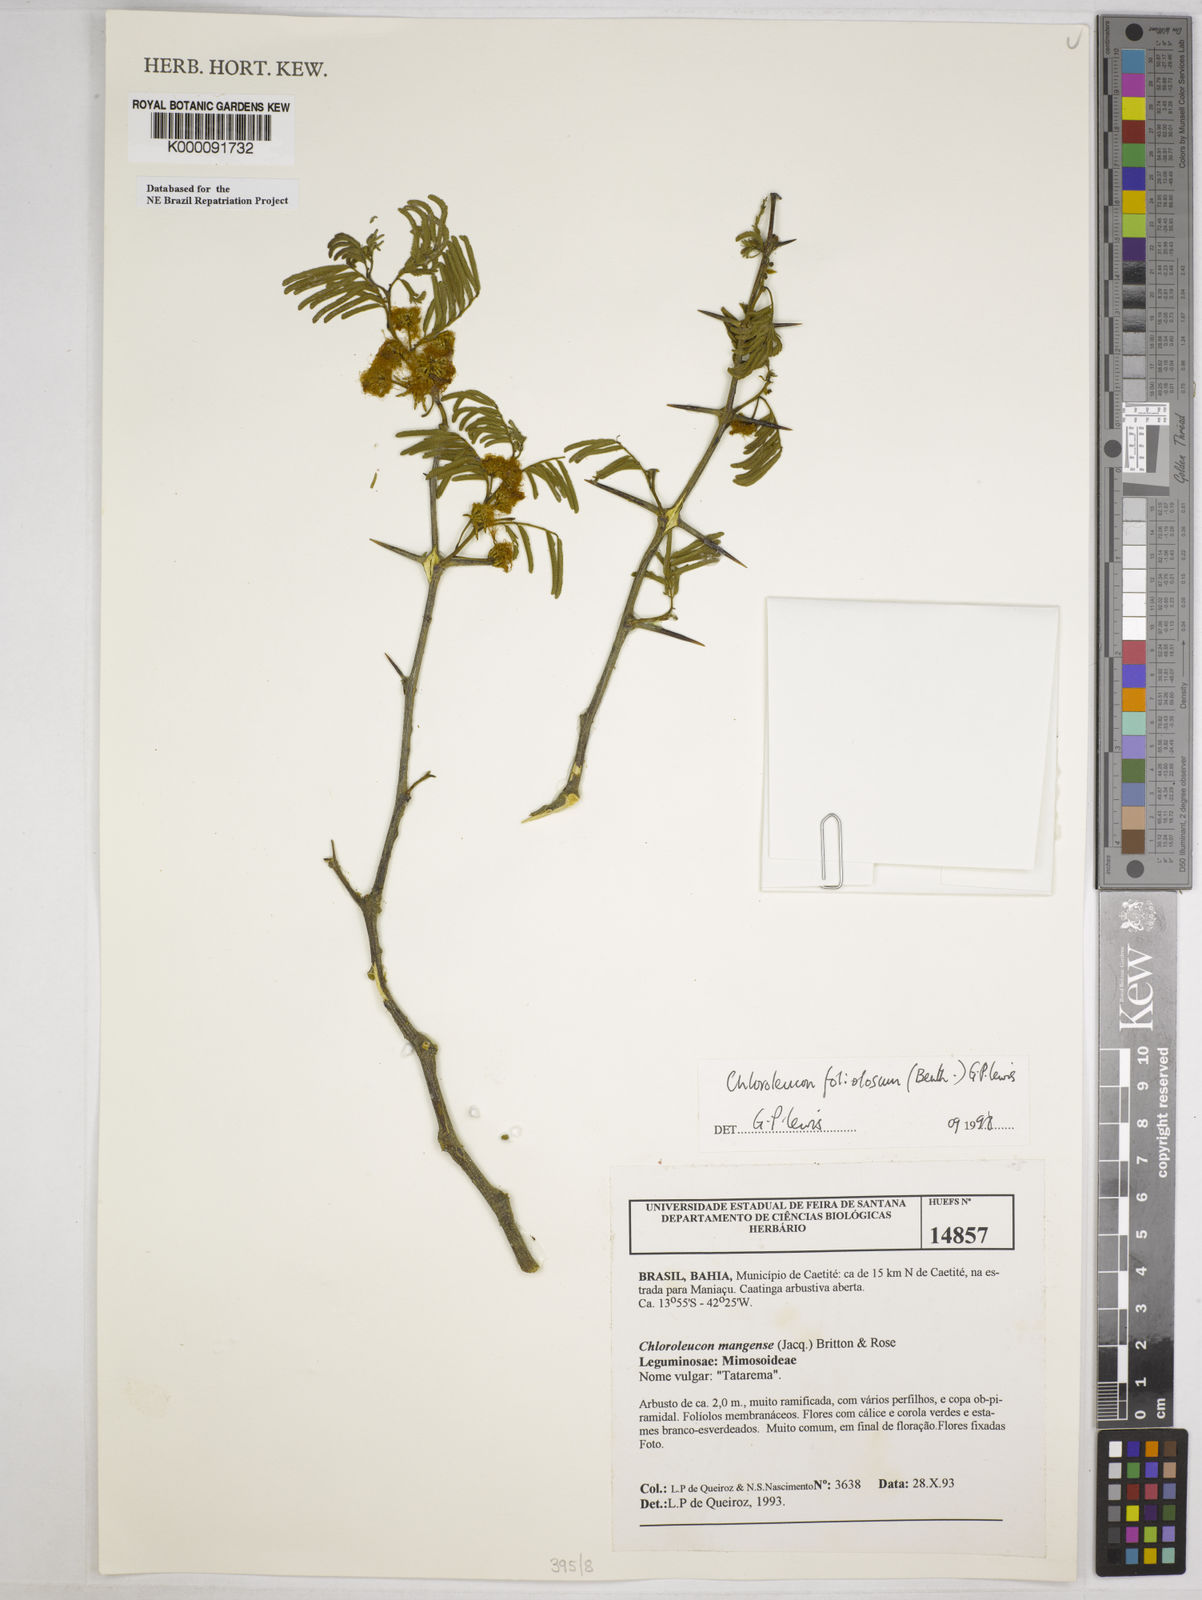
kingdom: Plantae
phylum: Tracheophyta
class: Magnoliopsida
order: Fabales
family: Fabaceae
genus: Chloroleucon
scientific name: Chloroleucon foliolosum
